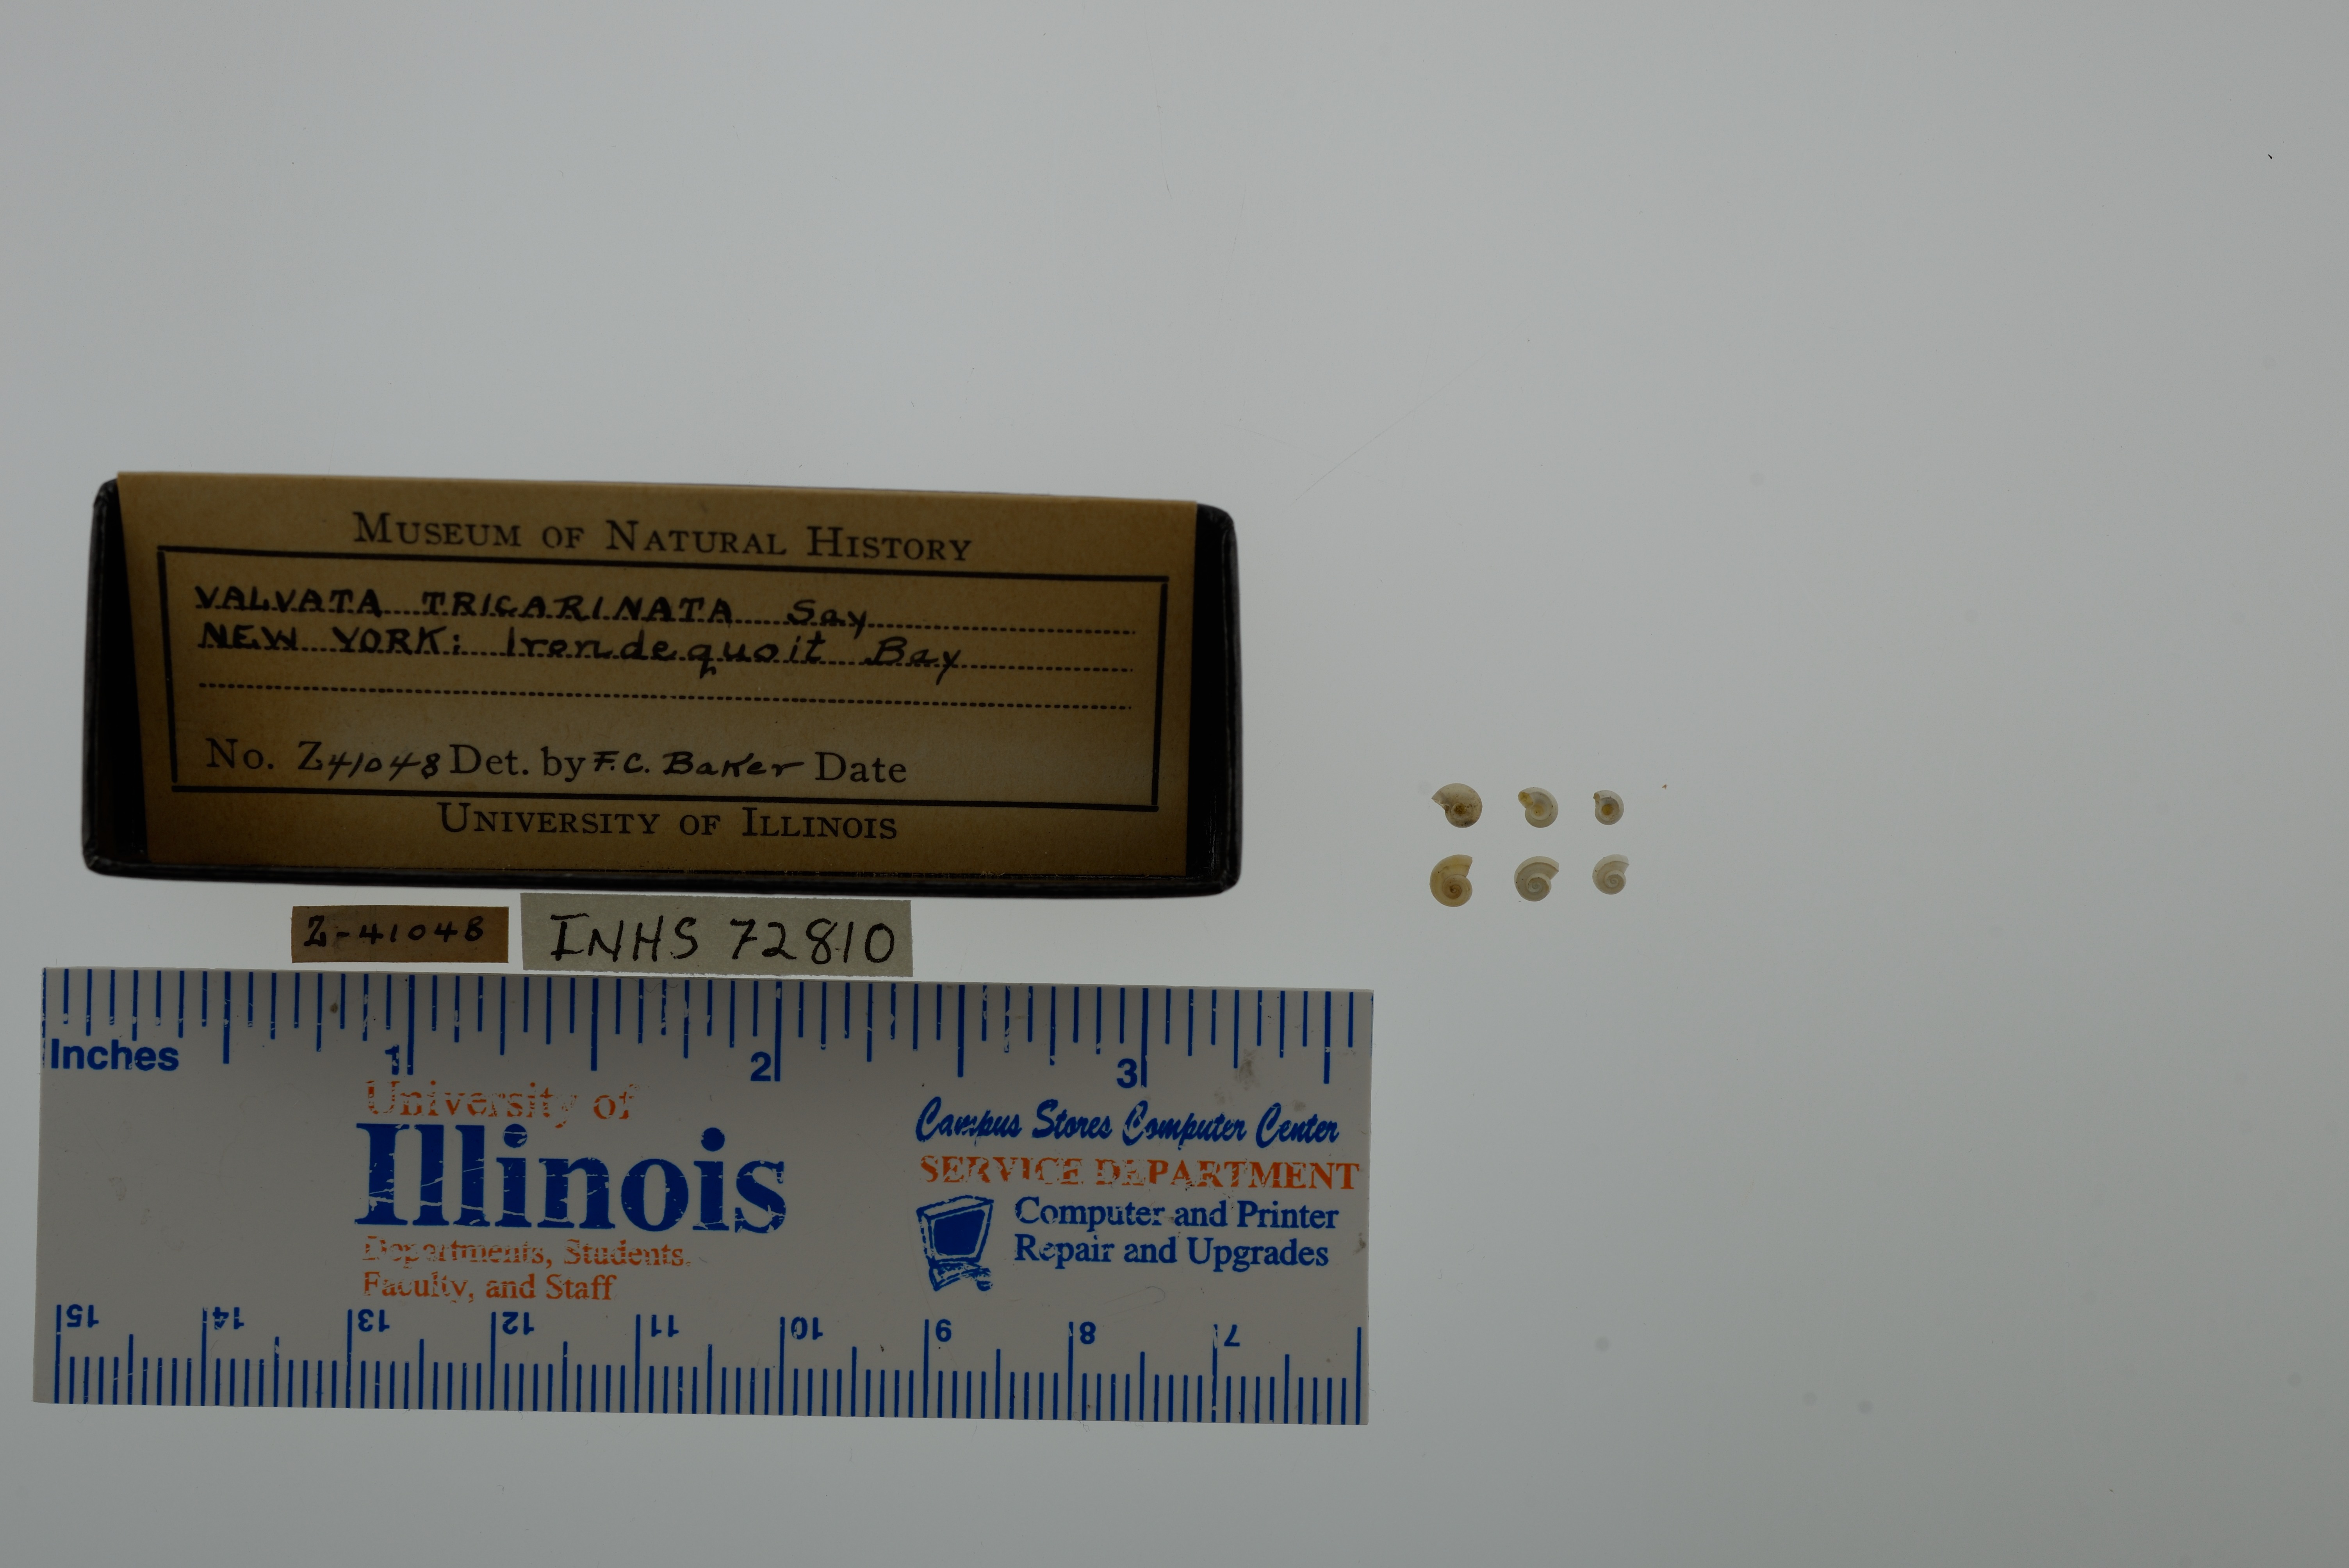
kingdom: Animalia
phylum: Mollusca
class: Gastropoda
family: Valvatidae
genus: Valvata
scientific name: Valvata tricarinata
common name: Three-ridge valvata
